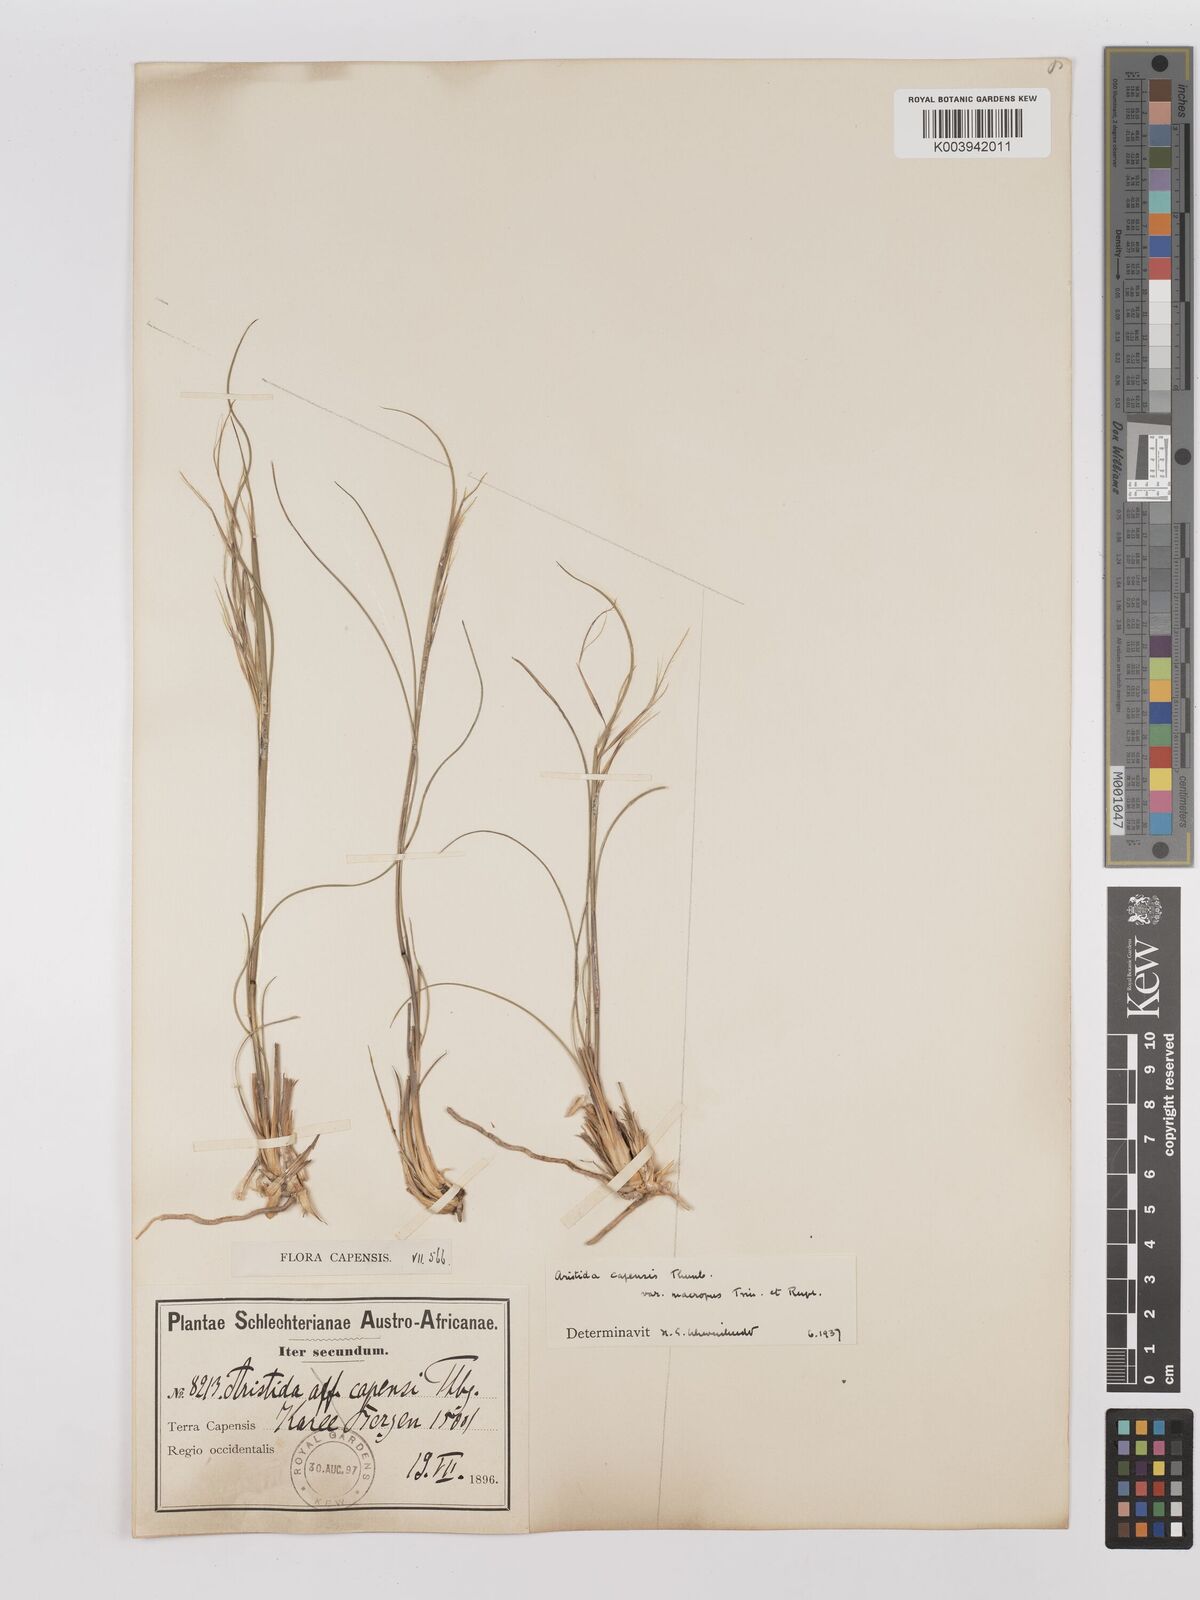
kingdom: Plantae
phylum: Tracheophyta
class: Liliopsida
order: Poales
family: Poaceae
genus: Stipagrostis
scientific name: Stipagrostis zeyheri
